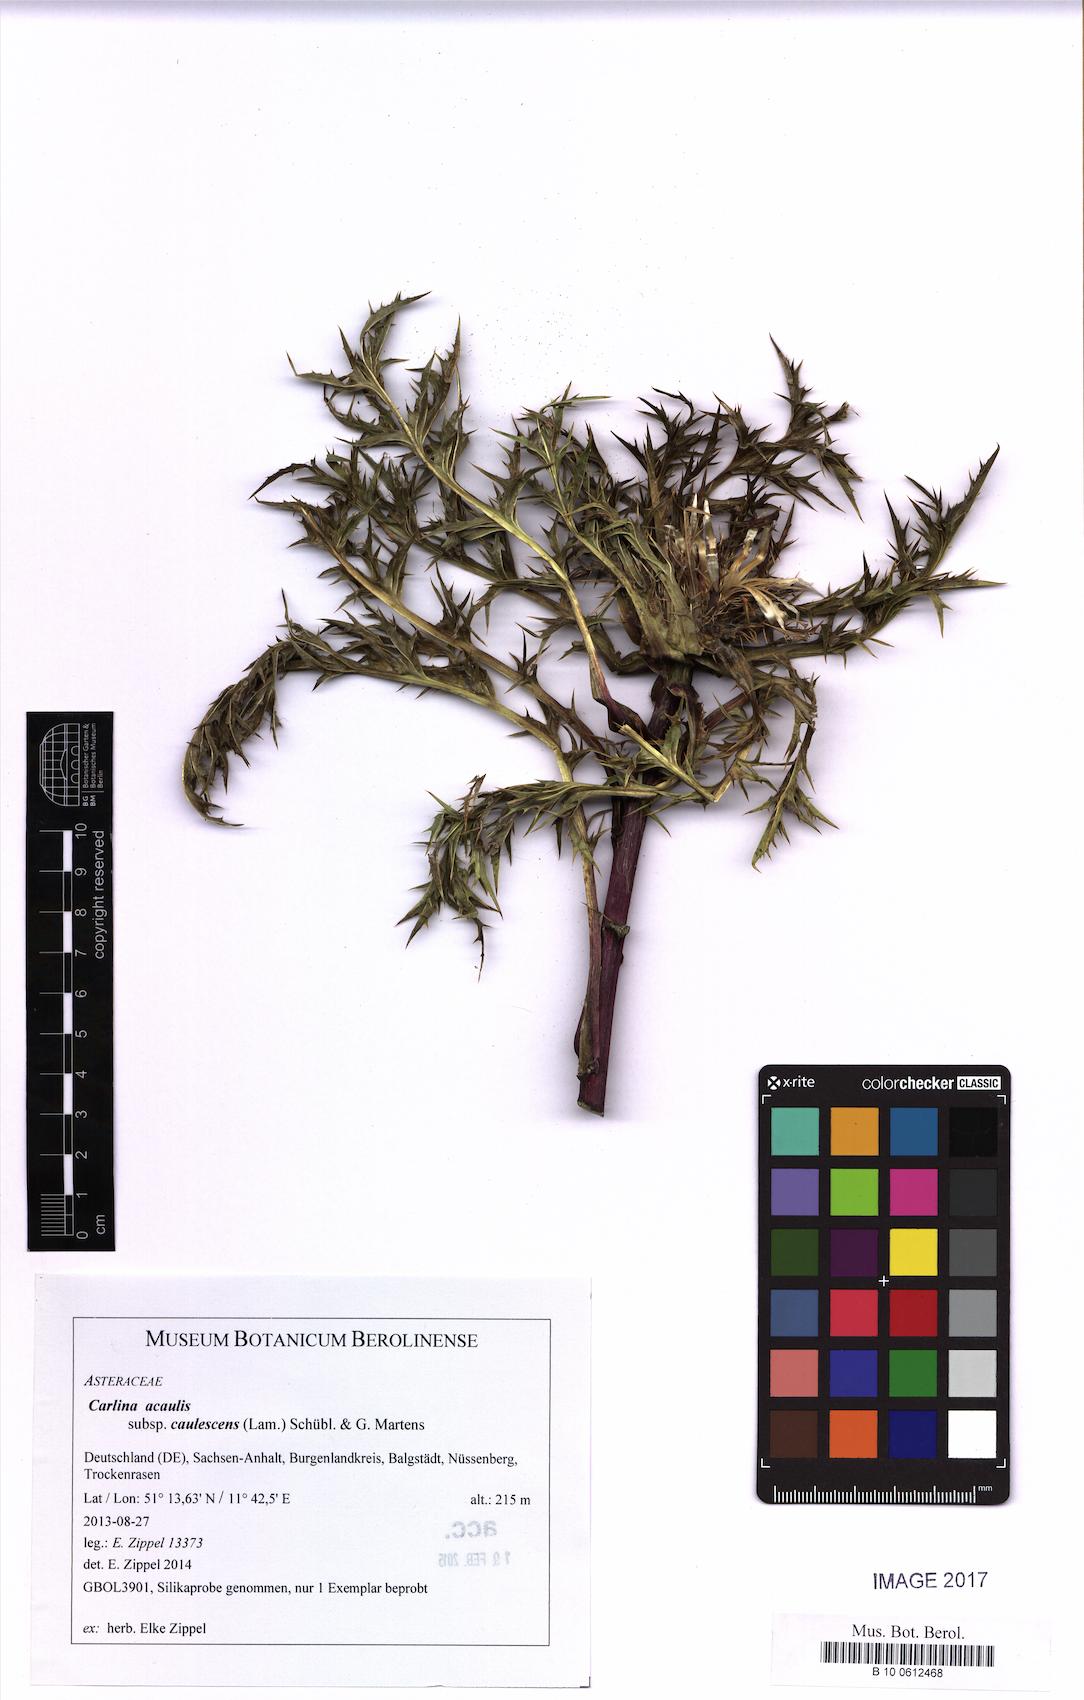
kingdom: Plantae
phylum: Tracheophyta
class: Magnoliopsida
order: Asterales
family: Asteraceae
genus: Carlina
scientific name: Carlina acaulis
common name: Stemless carline thistle
